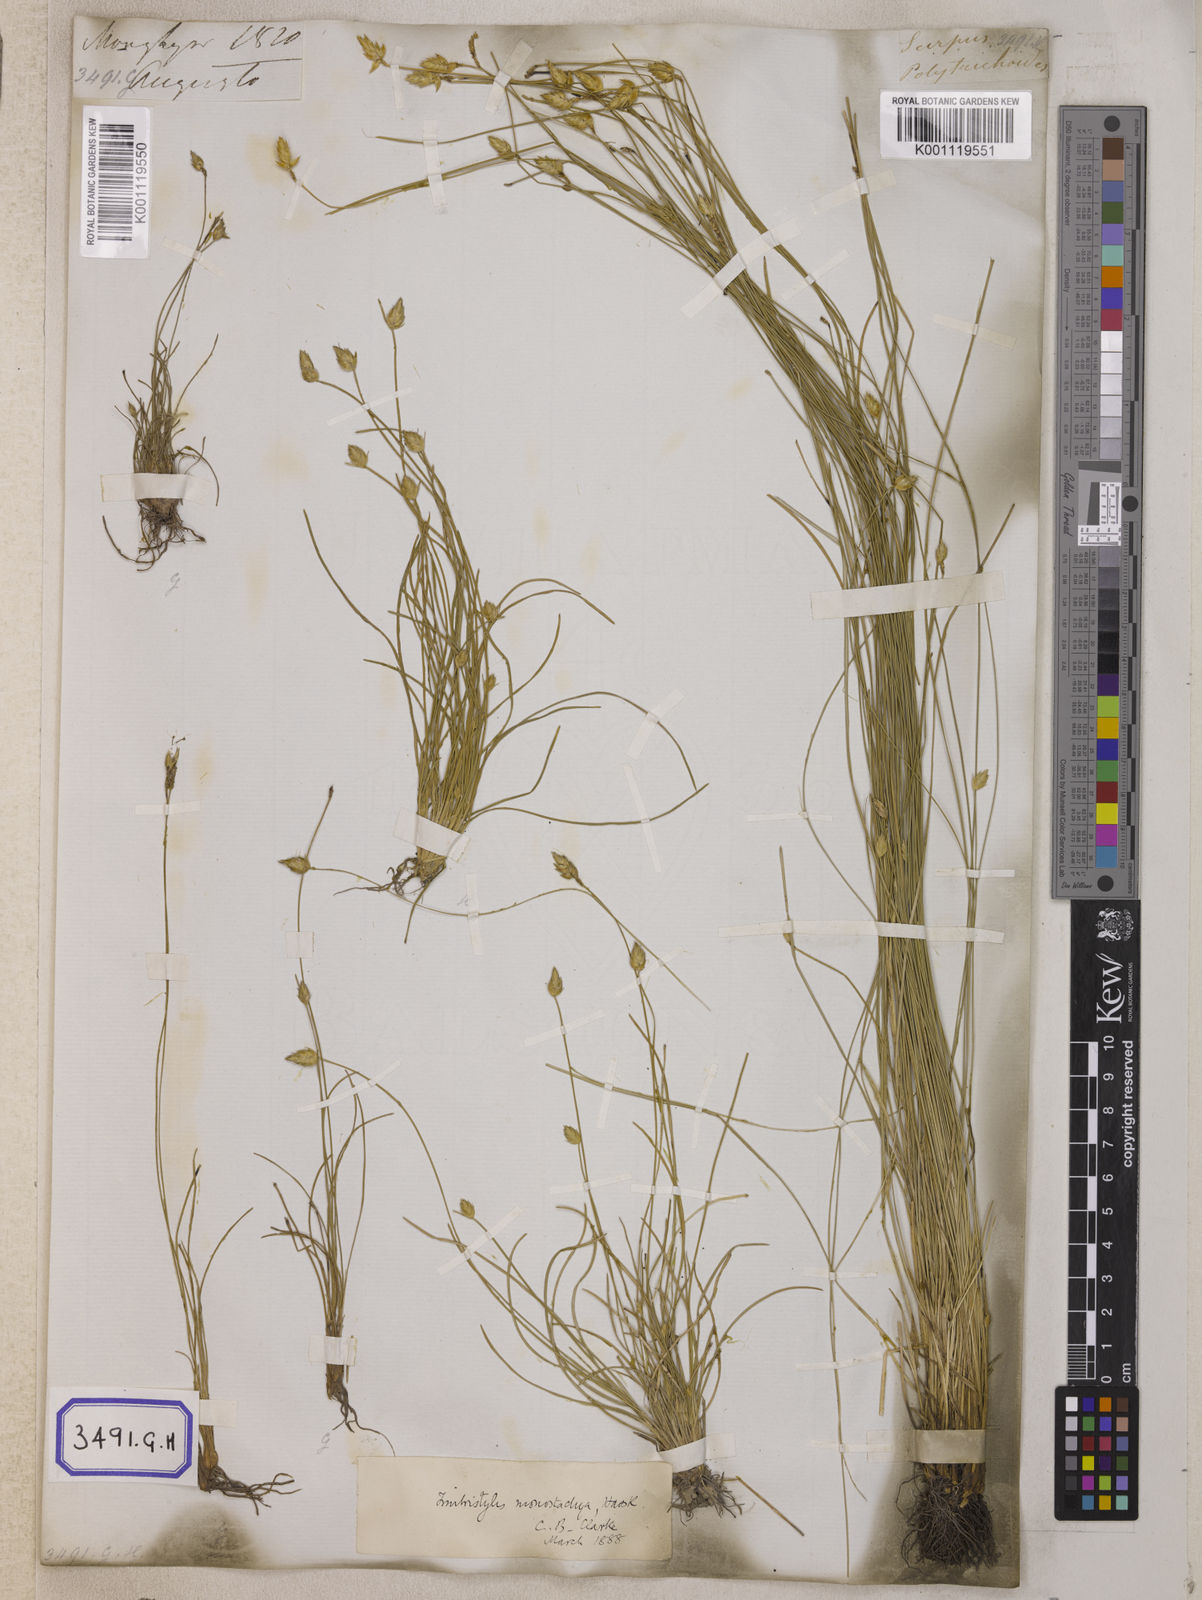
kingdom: Plantae
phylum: Tracheophyta
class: Liliopsida
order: Poales
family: Cyperaceae
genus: Abildgaardia
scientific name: Abildgaardia
